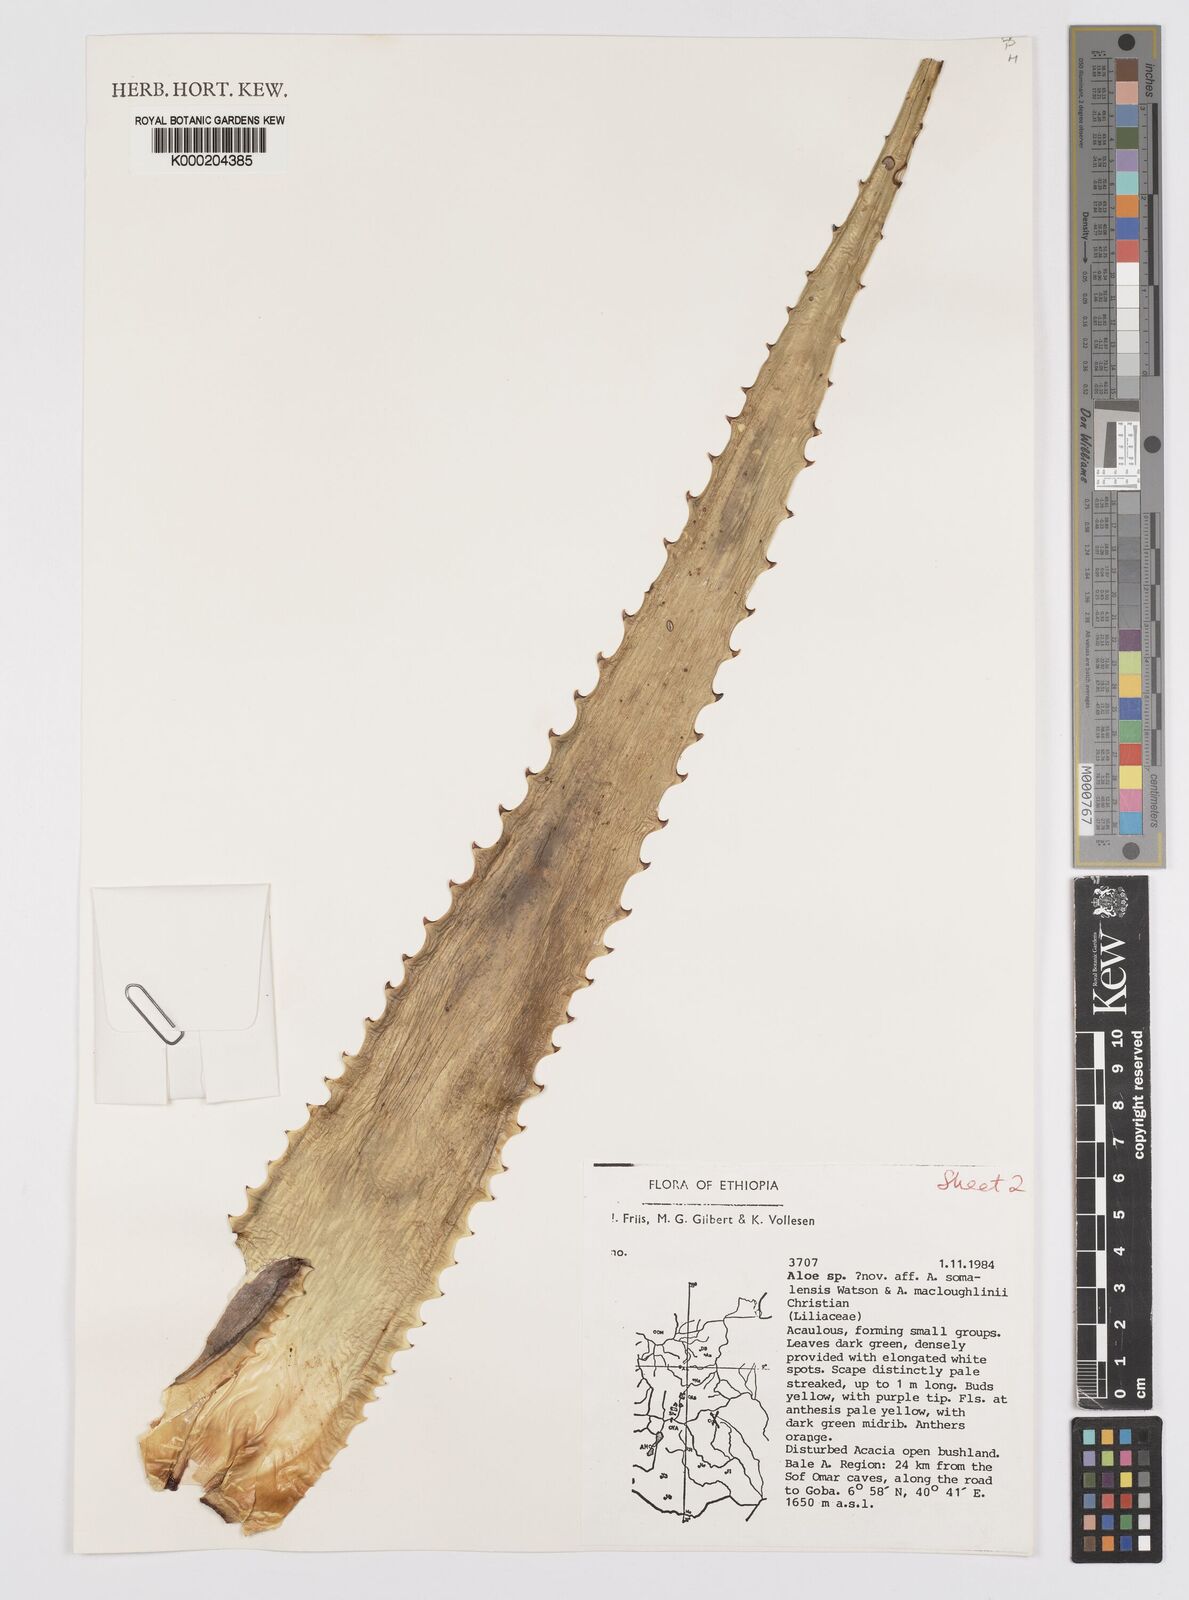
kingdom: Plantae
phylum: Tracheophyta
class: Liliopsida
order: Asparagales
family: Asphodelaceae
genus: Aloe
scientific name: Aloe pirottae
